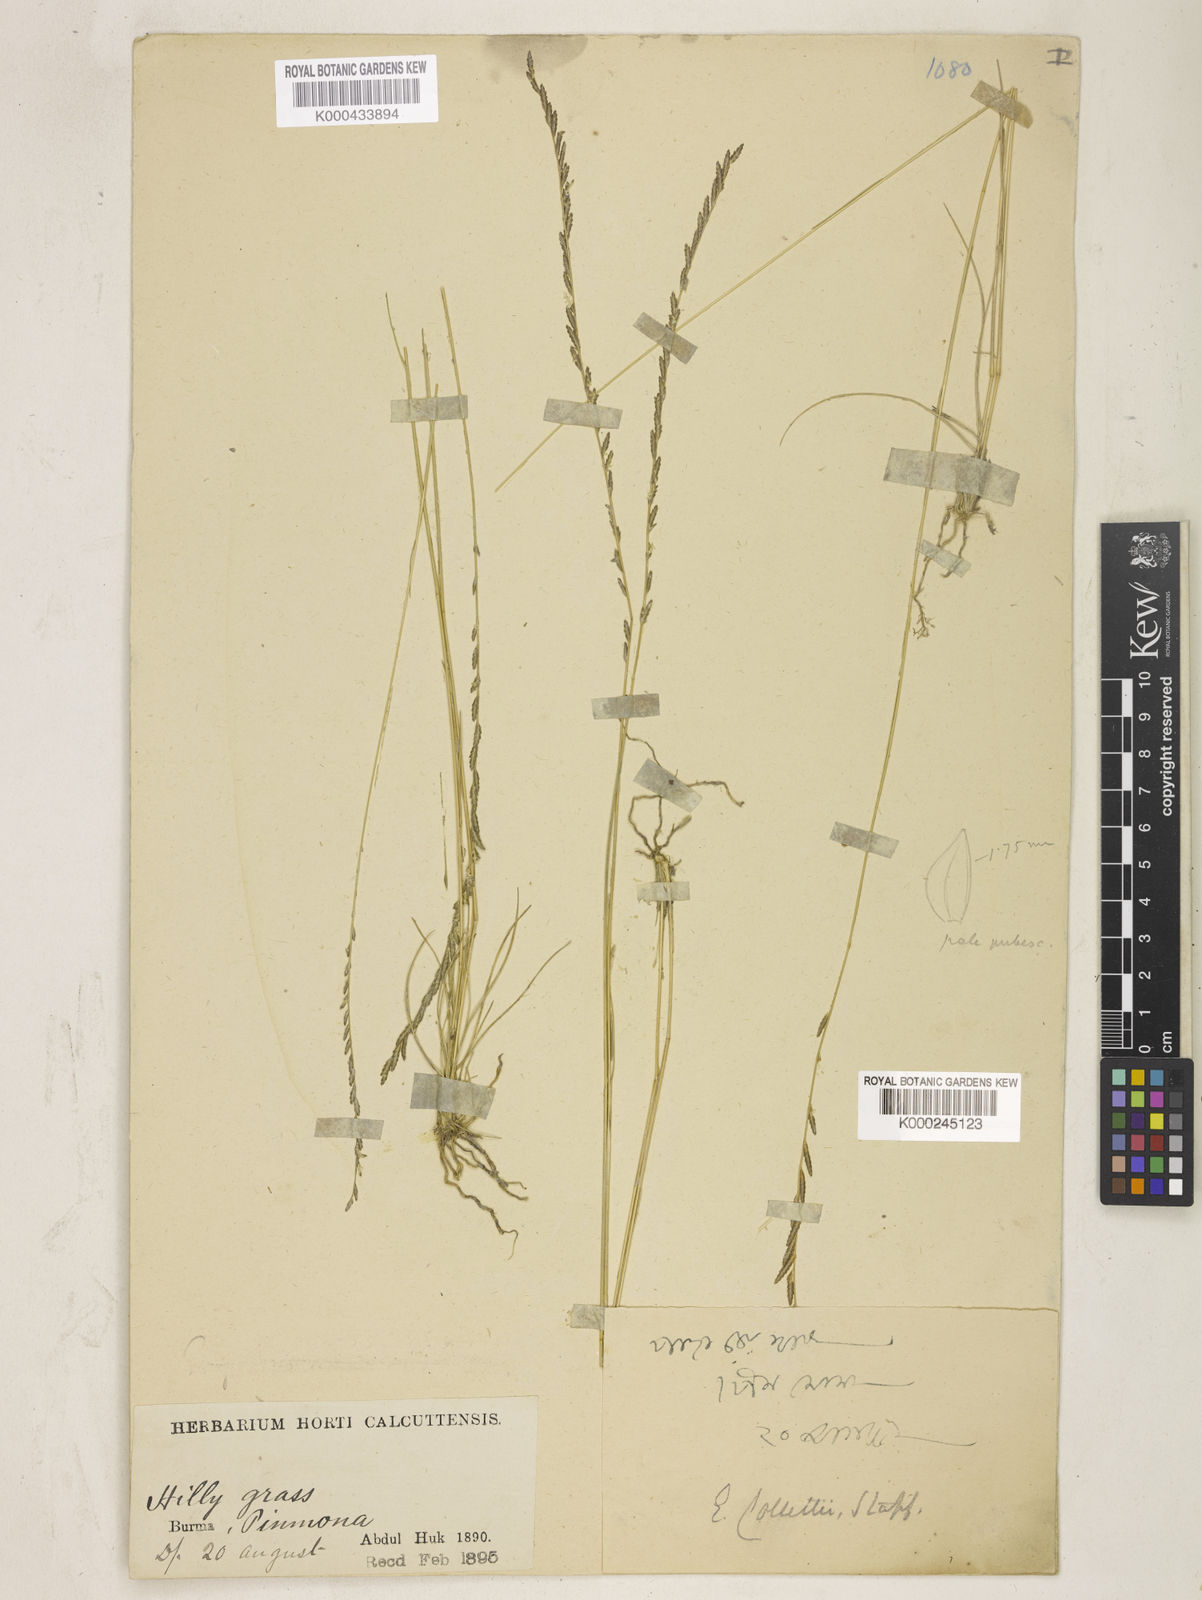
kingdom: Plantae
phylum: Tracheophyta
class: Liliopsida
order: Poales
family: Poaceae
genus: Eragrostiella
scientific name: Eragrostiella collettii
